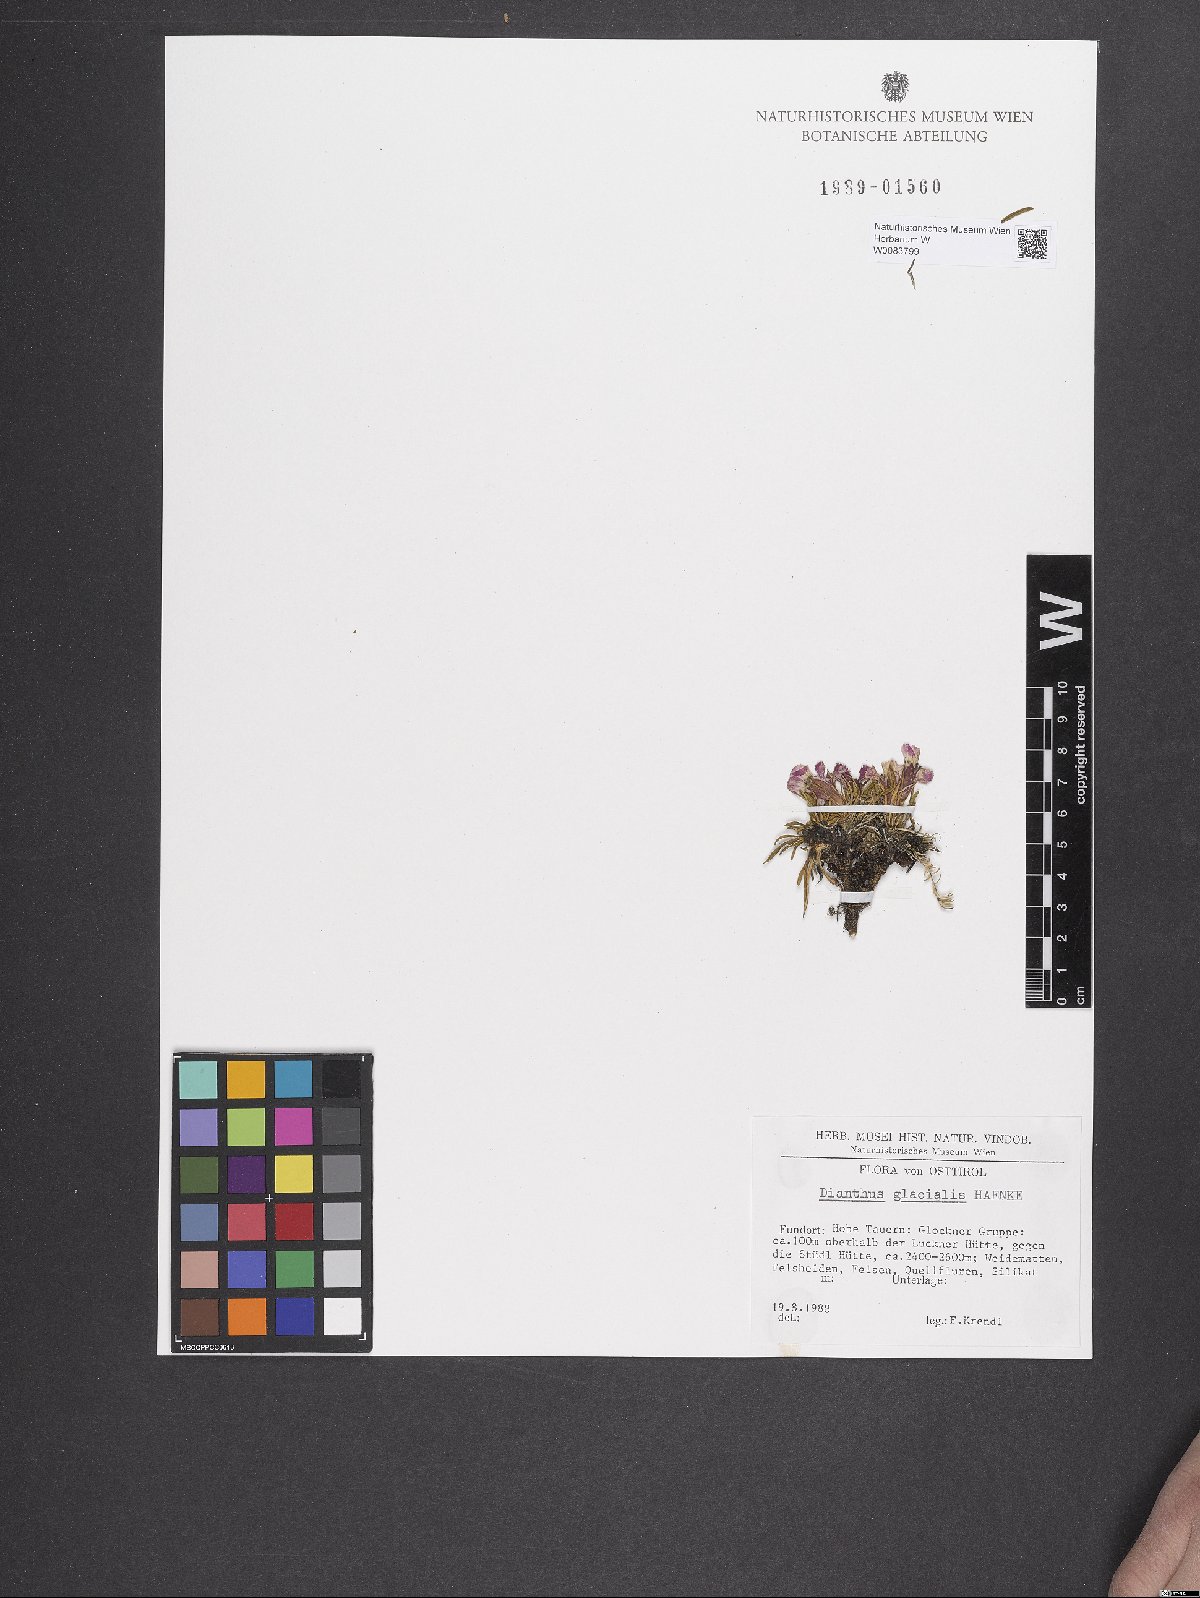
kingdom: Plantae
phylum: Tracheophyta
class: Magnoliopsida
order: Caryophyllales
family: Caryophyllaceae
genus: Dianthus
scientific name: Dianthus glacialis
